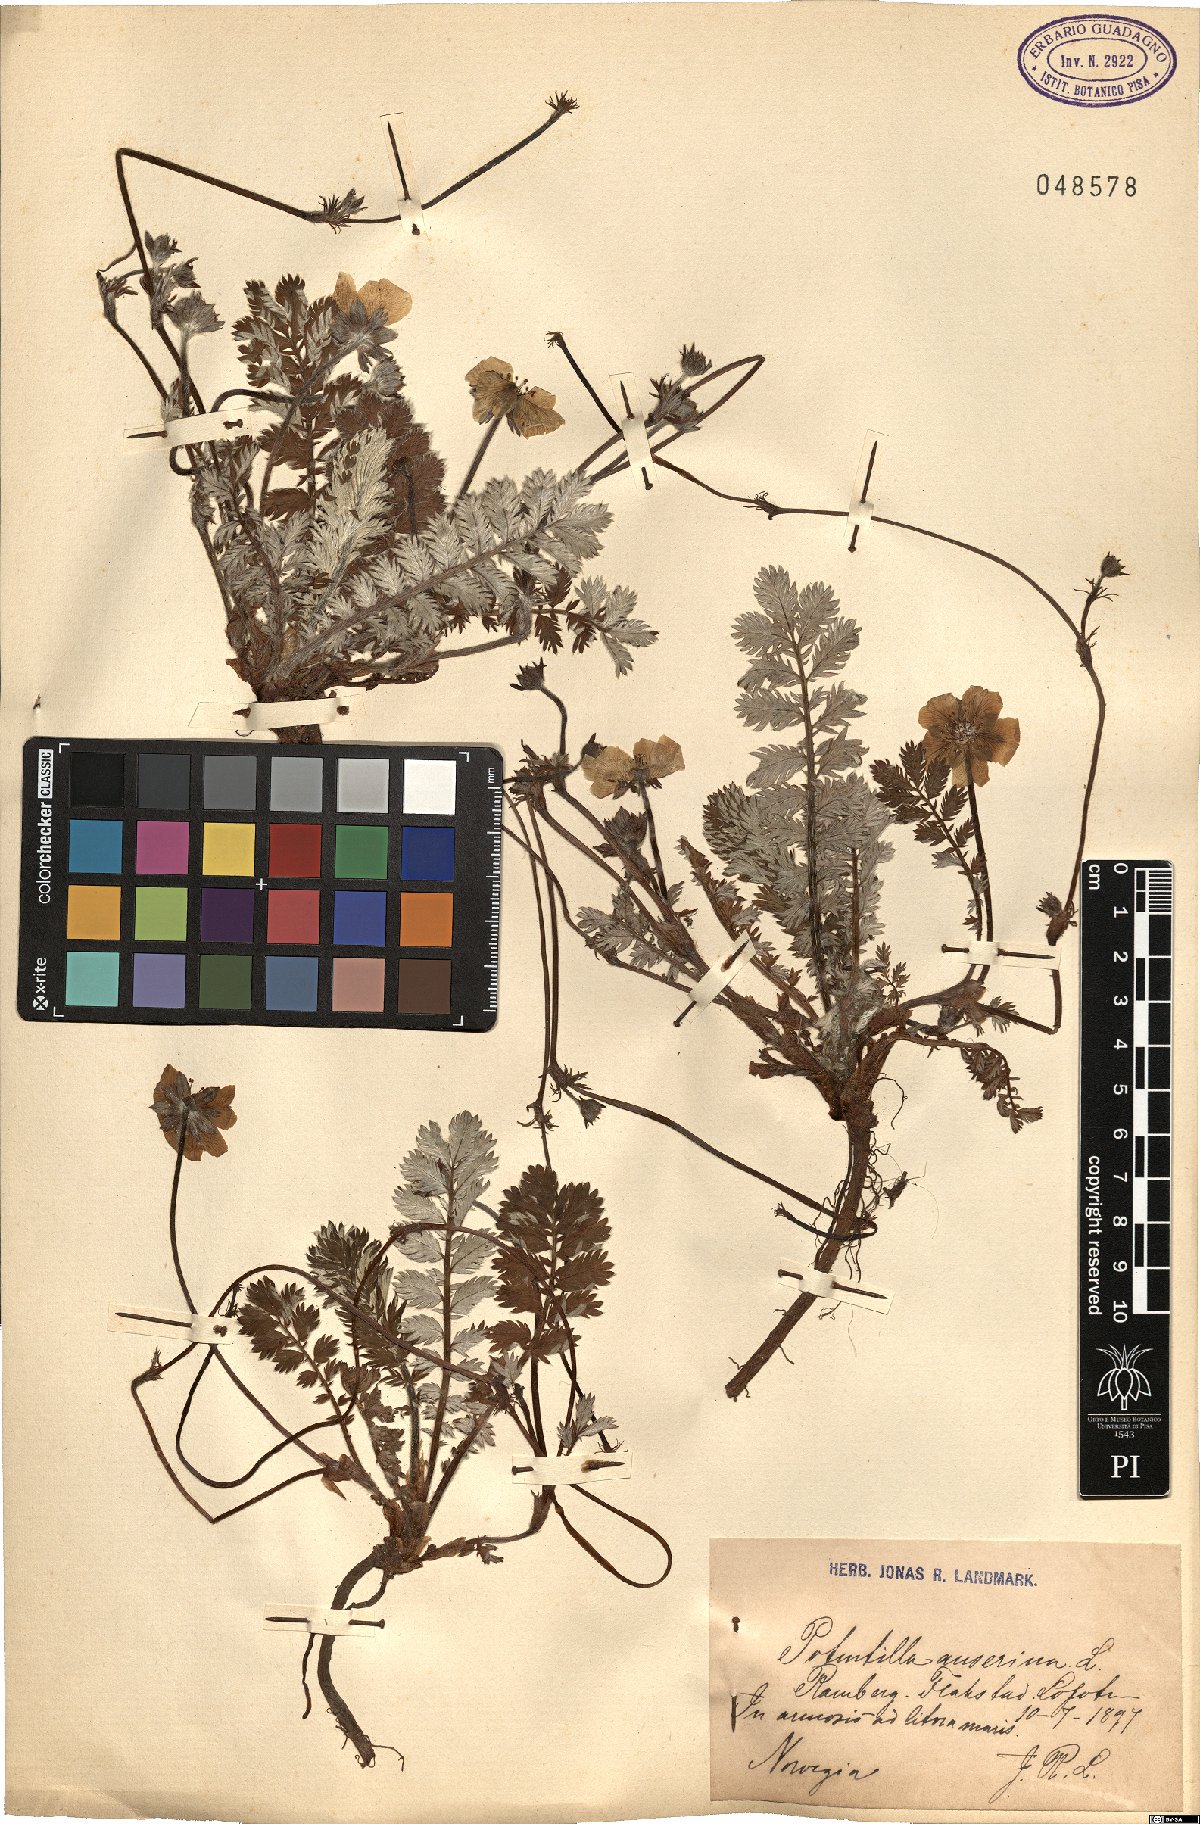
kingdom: Plantae
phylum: Tracheophyta
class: Magnoliopsida
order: Rosales
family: Rosaceae
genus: Argentina
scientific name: Argentina anserina
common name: Common silverweed
